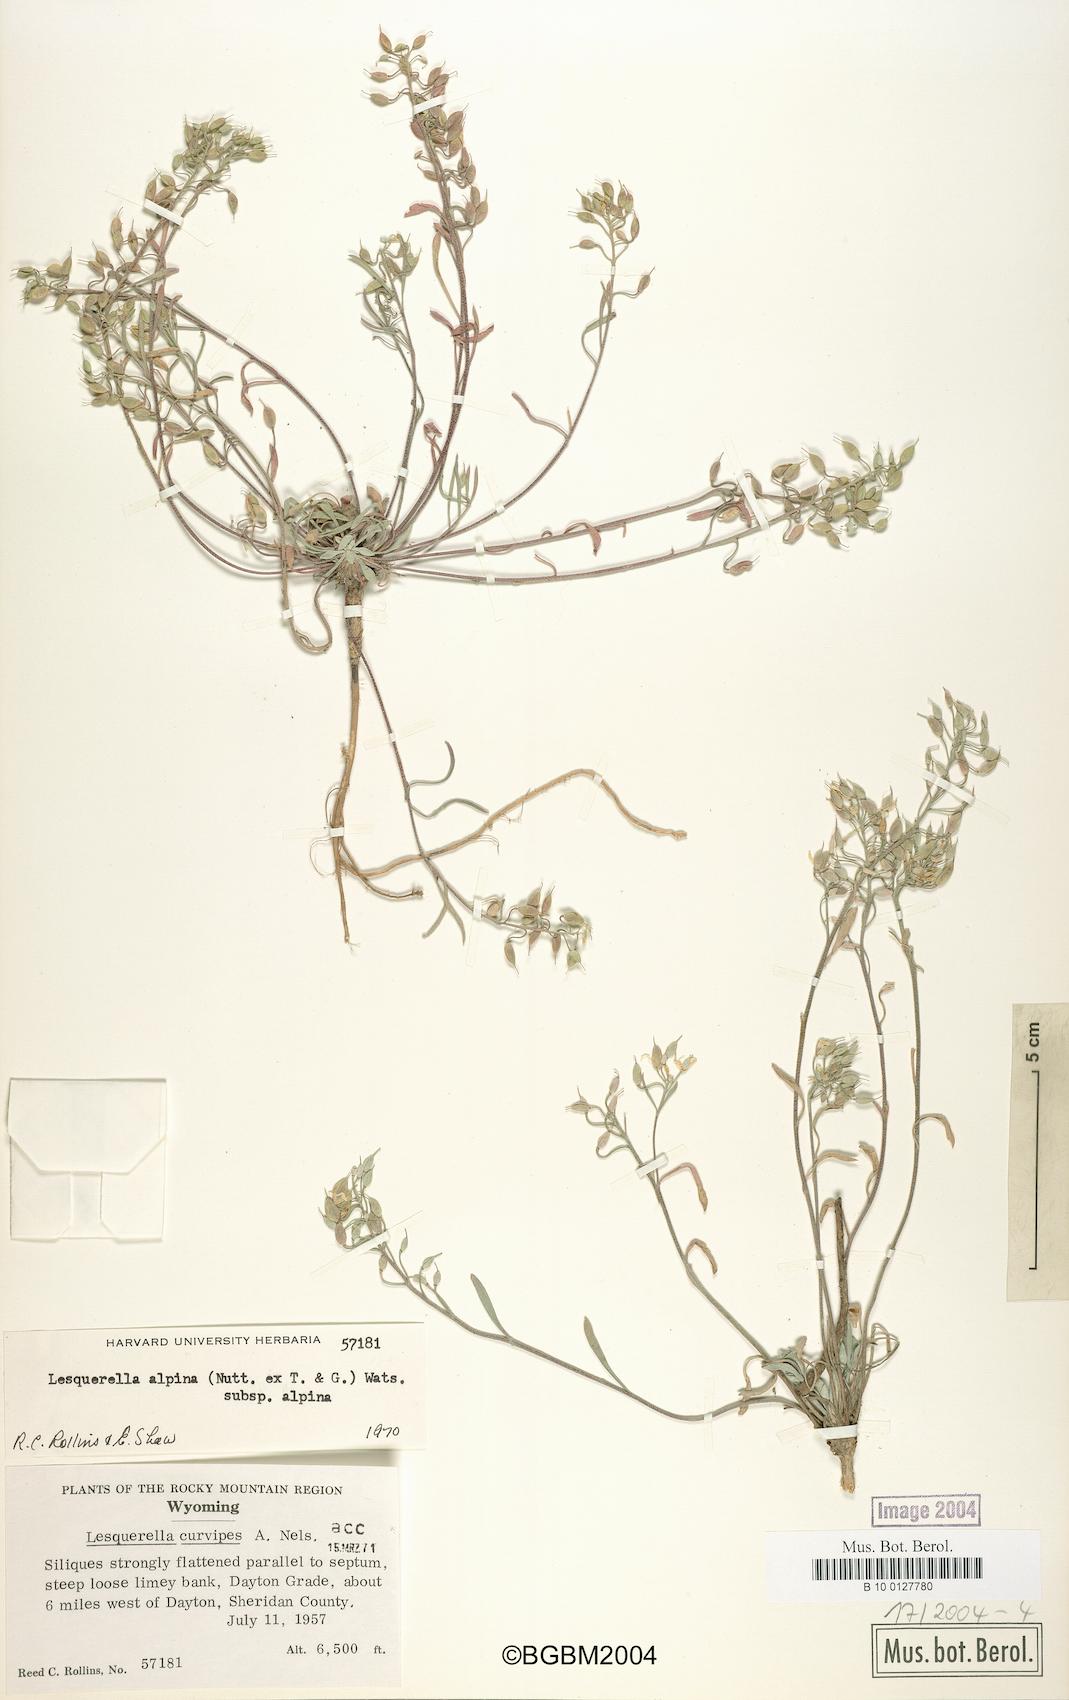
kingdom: Plantae
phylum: Tracheophyta
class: Magnoliopsida
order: Brassicales
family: Brassicaceae
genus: Physaria
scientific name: Physaria reediana
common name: Rollins's bladderpod
